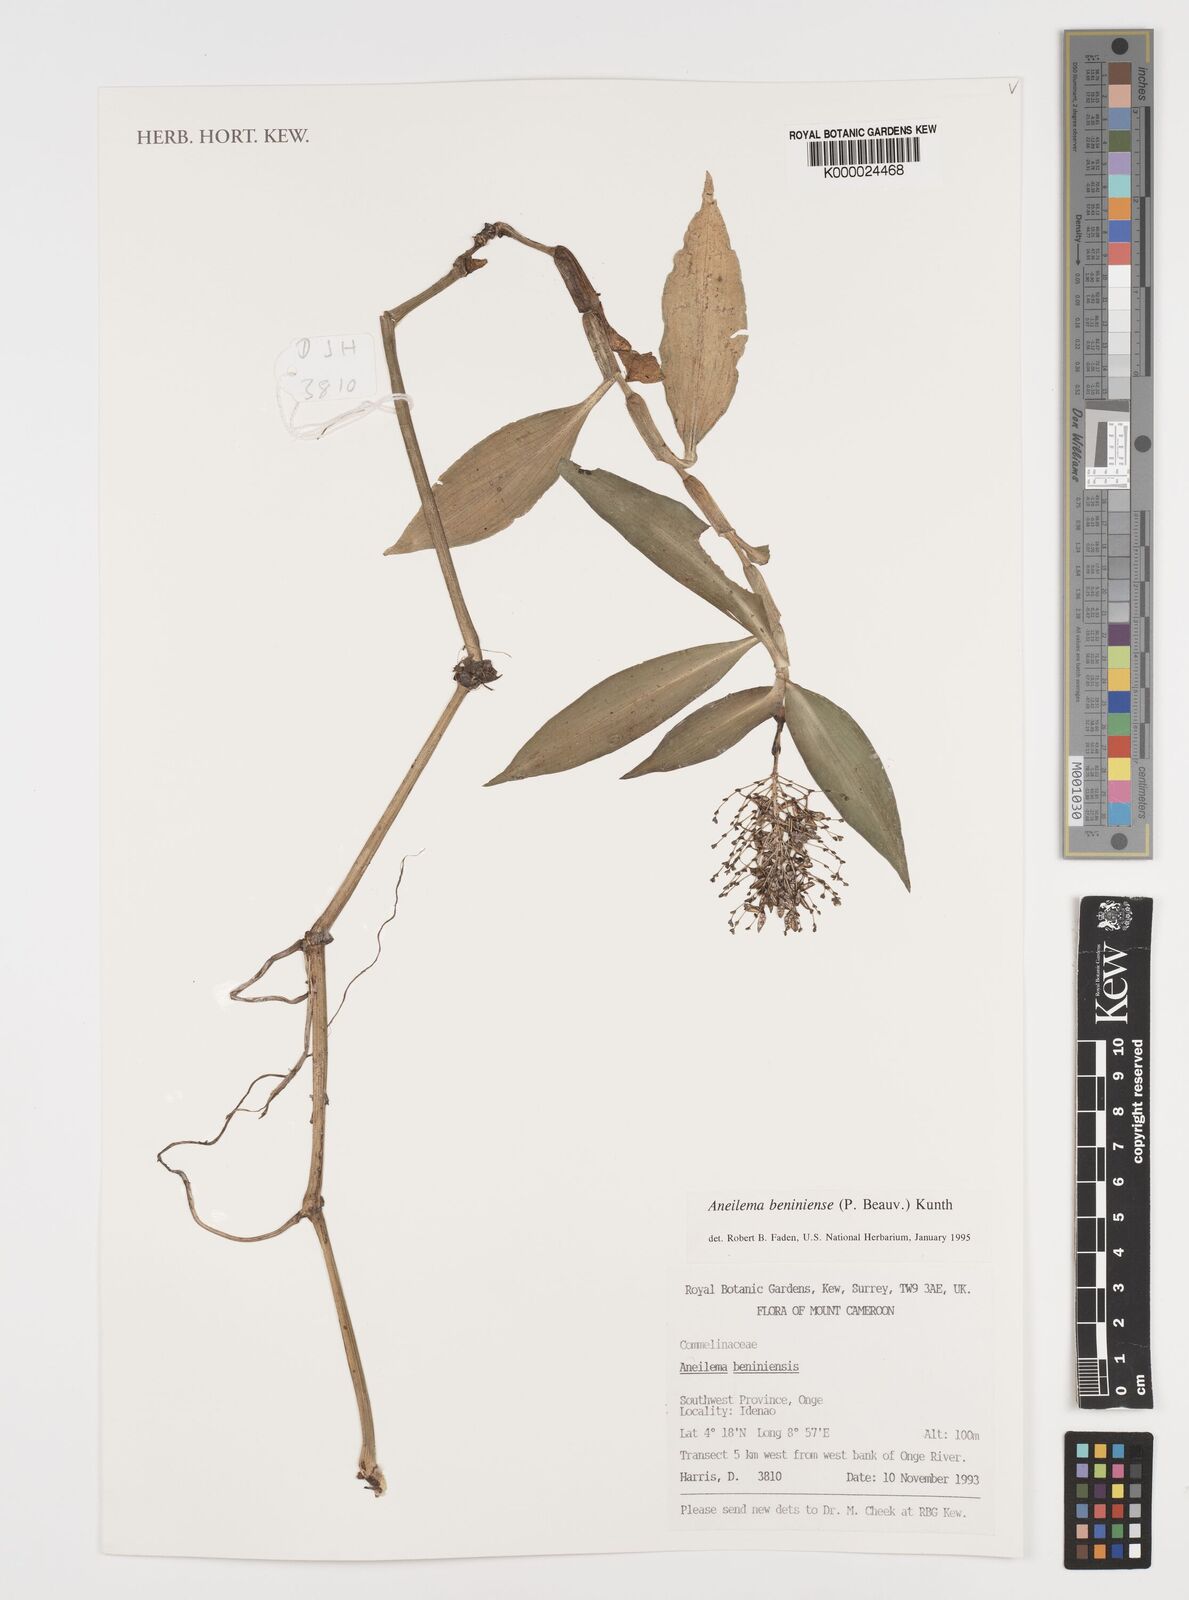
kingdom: Plantae
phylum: Tracheophyta
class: Liliopsida
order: Commelinales
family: Commelinaceae
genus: Aneilema
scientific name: Aneilema beniniense
